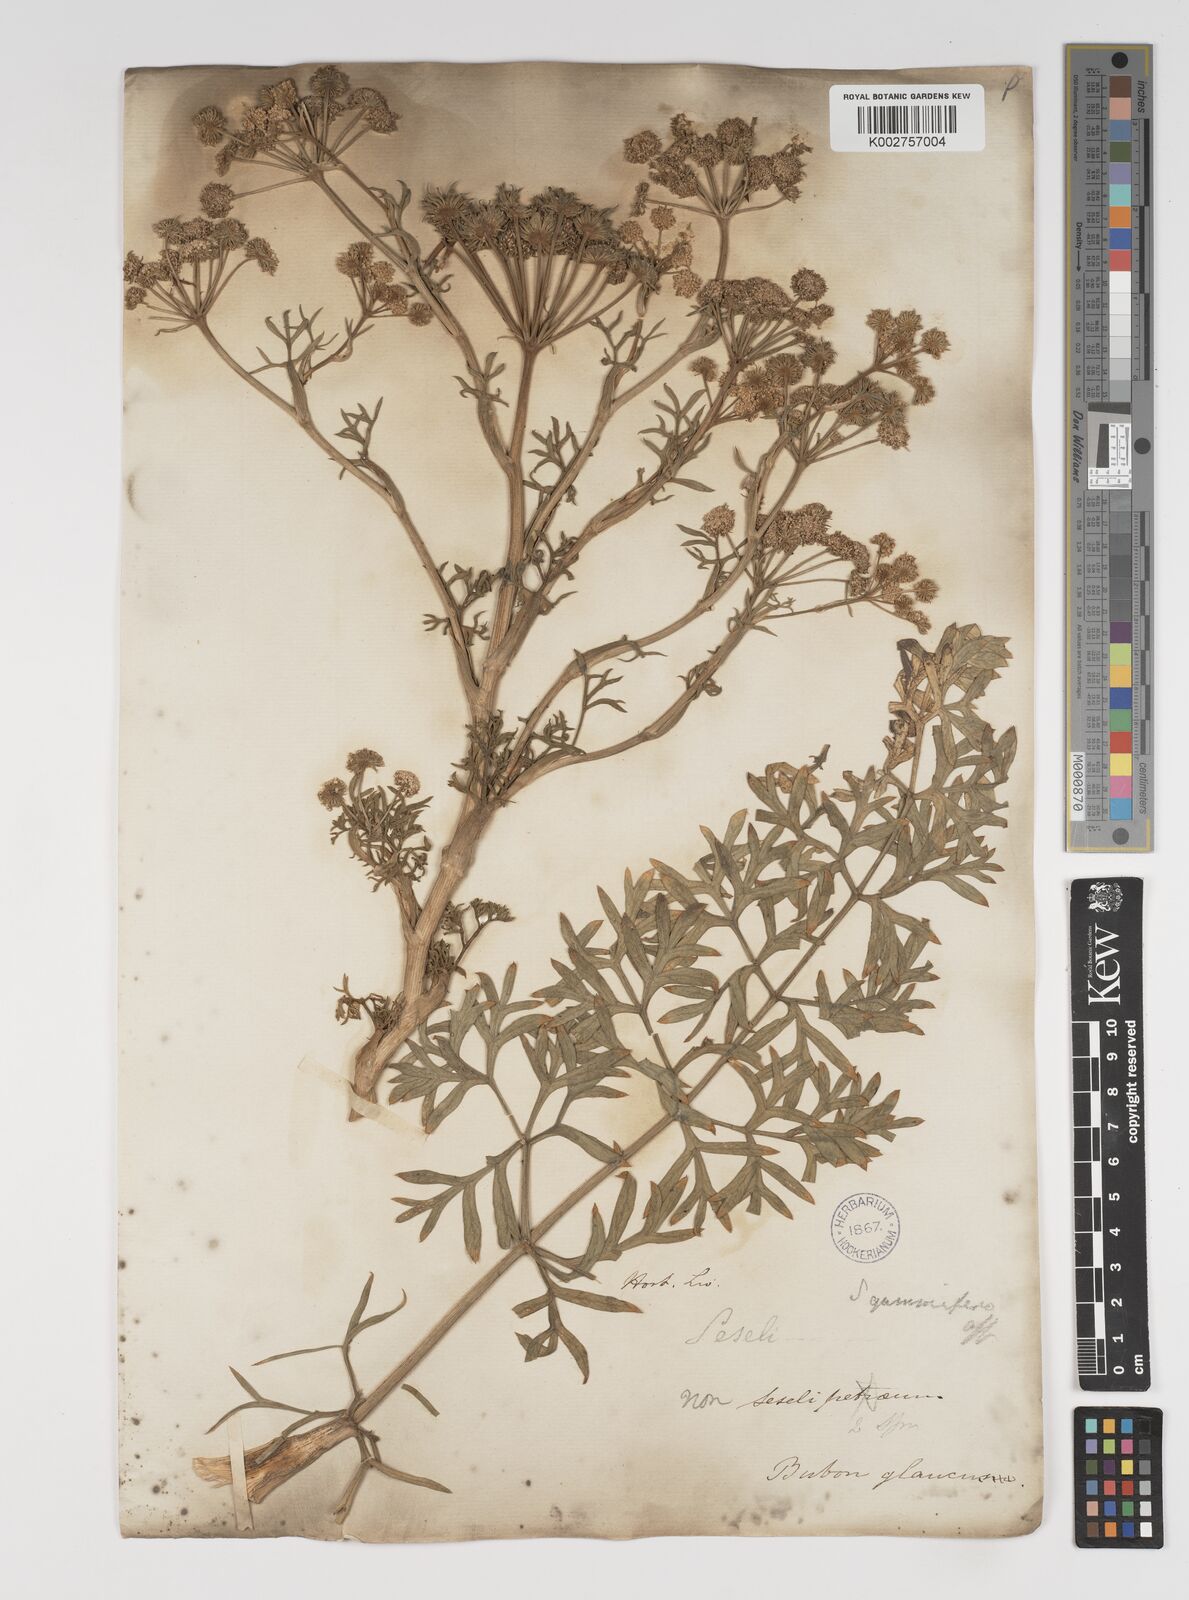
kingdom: Plantae
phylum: Tracheophyta
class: Magnoliopsida
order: Apiales
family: Apiaceae
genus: Seseli
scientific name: Seseli gummiferum
